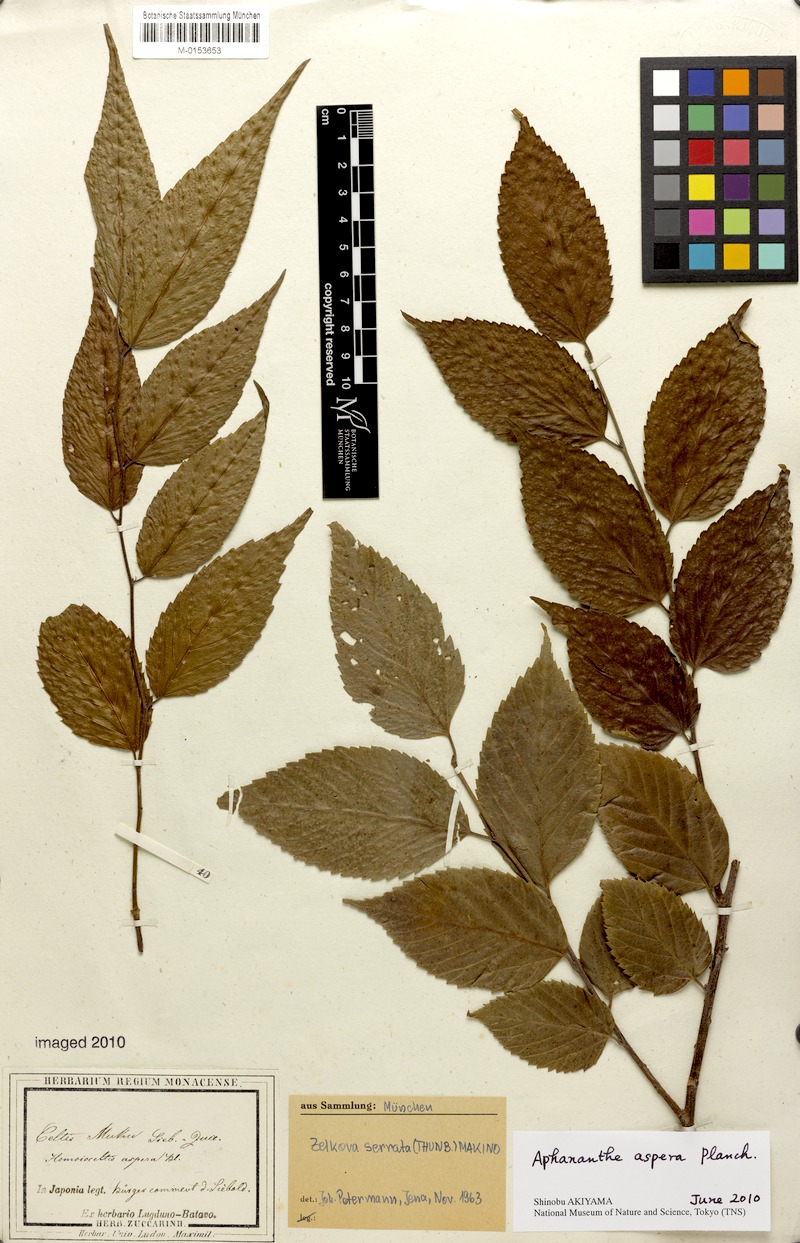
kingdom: Plantae
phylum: Tracheophyta
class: Magnoliopsida
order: Rosales
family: Cannabaceae
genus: Aphananthe
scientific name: Aphananthe aspera
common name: Mukutree
